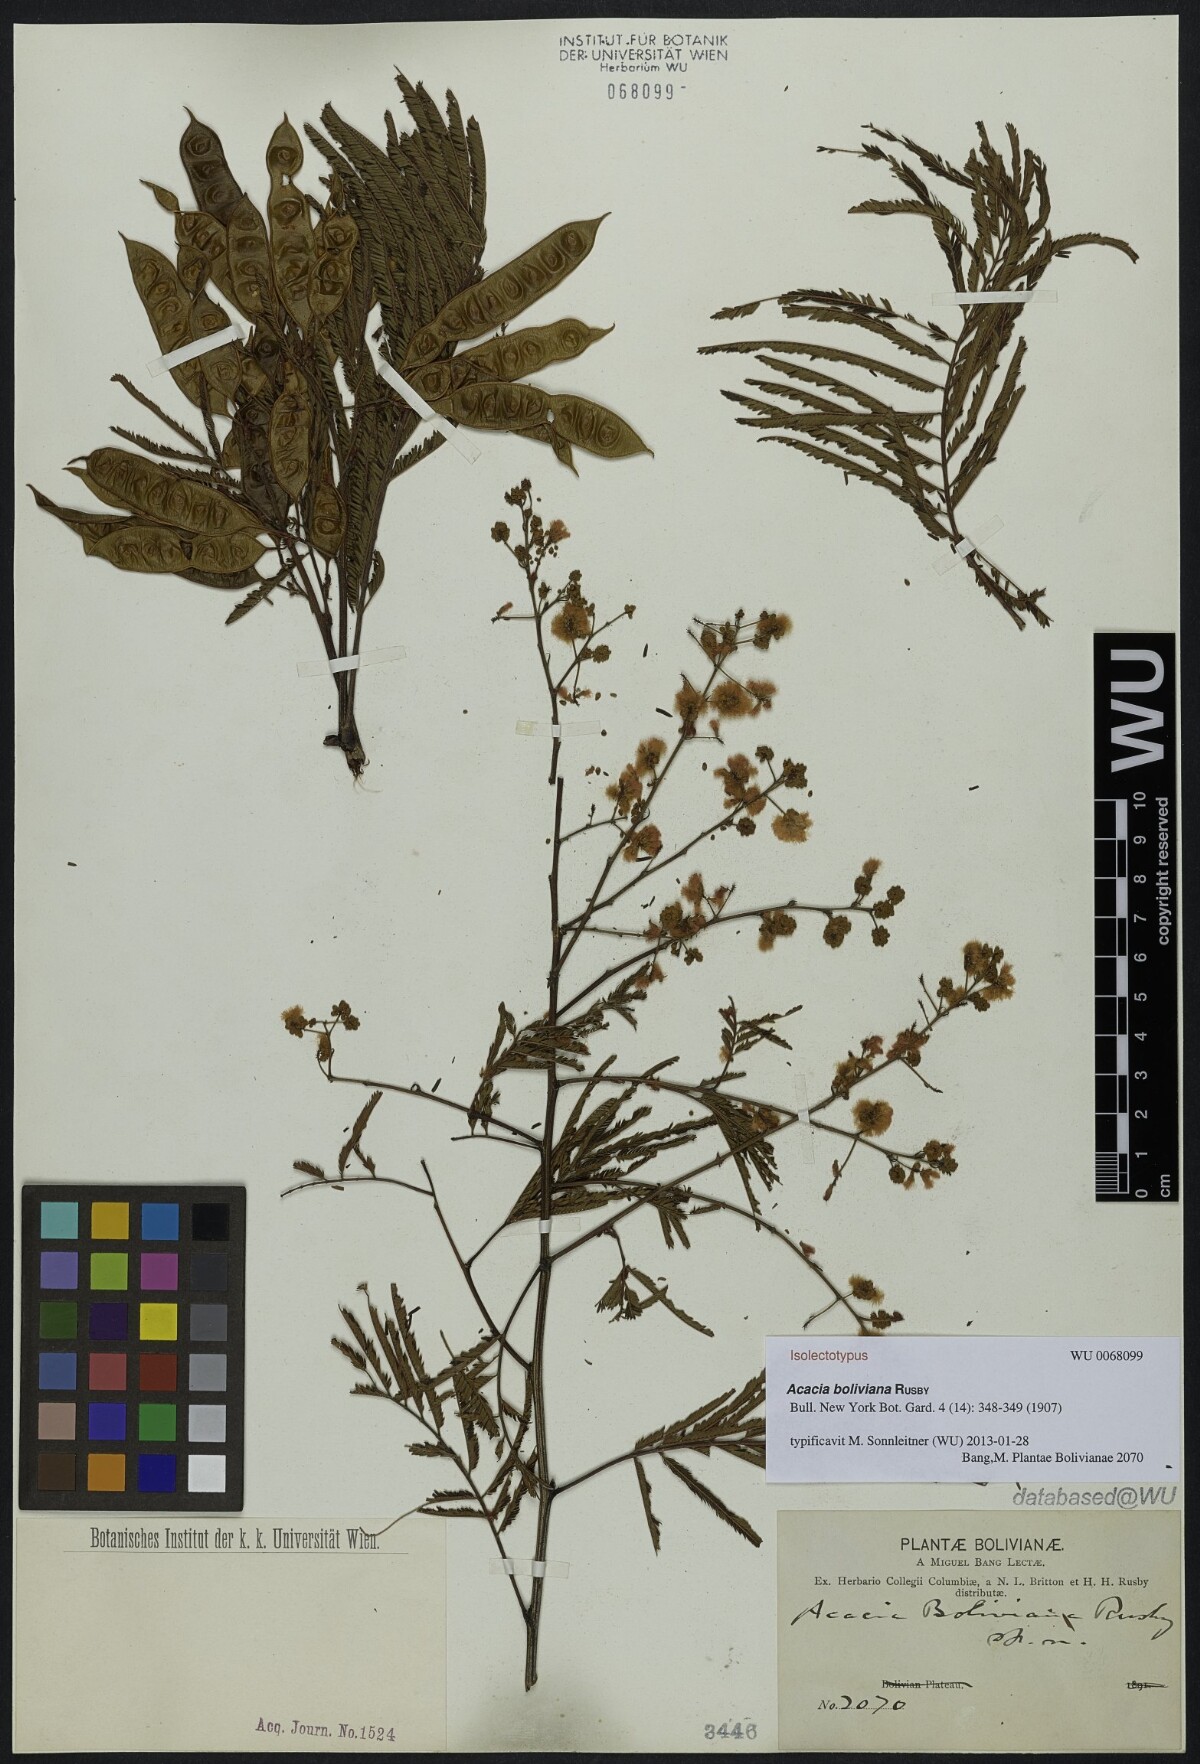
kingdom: Plantae
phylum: Tracheophyta
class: Magnoliopsida
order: Fabales
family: Fabaceae
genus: Acaciella
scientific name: Acaciella angustissima
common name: Prairie acacia
